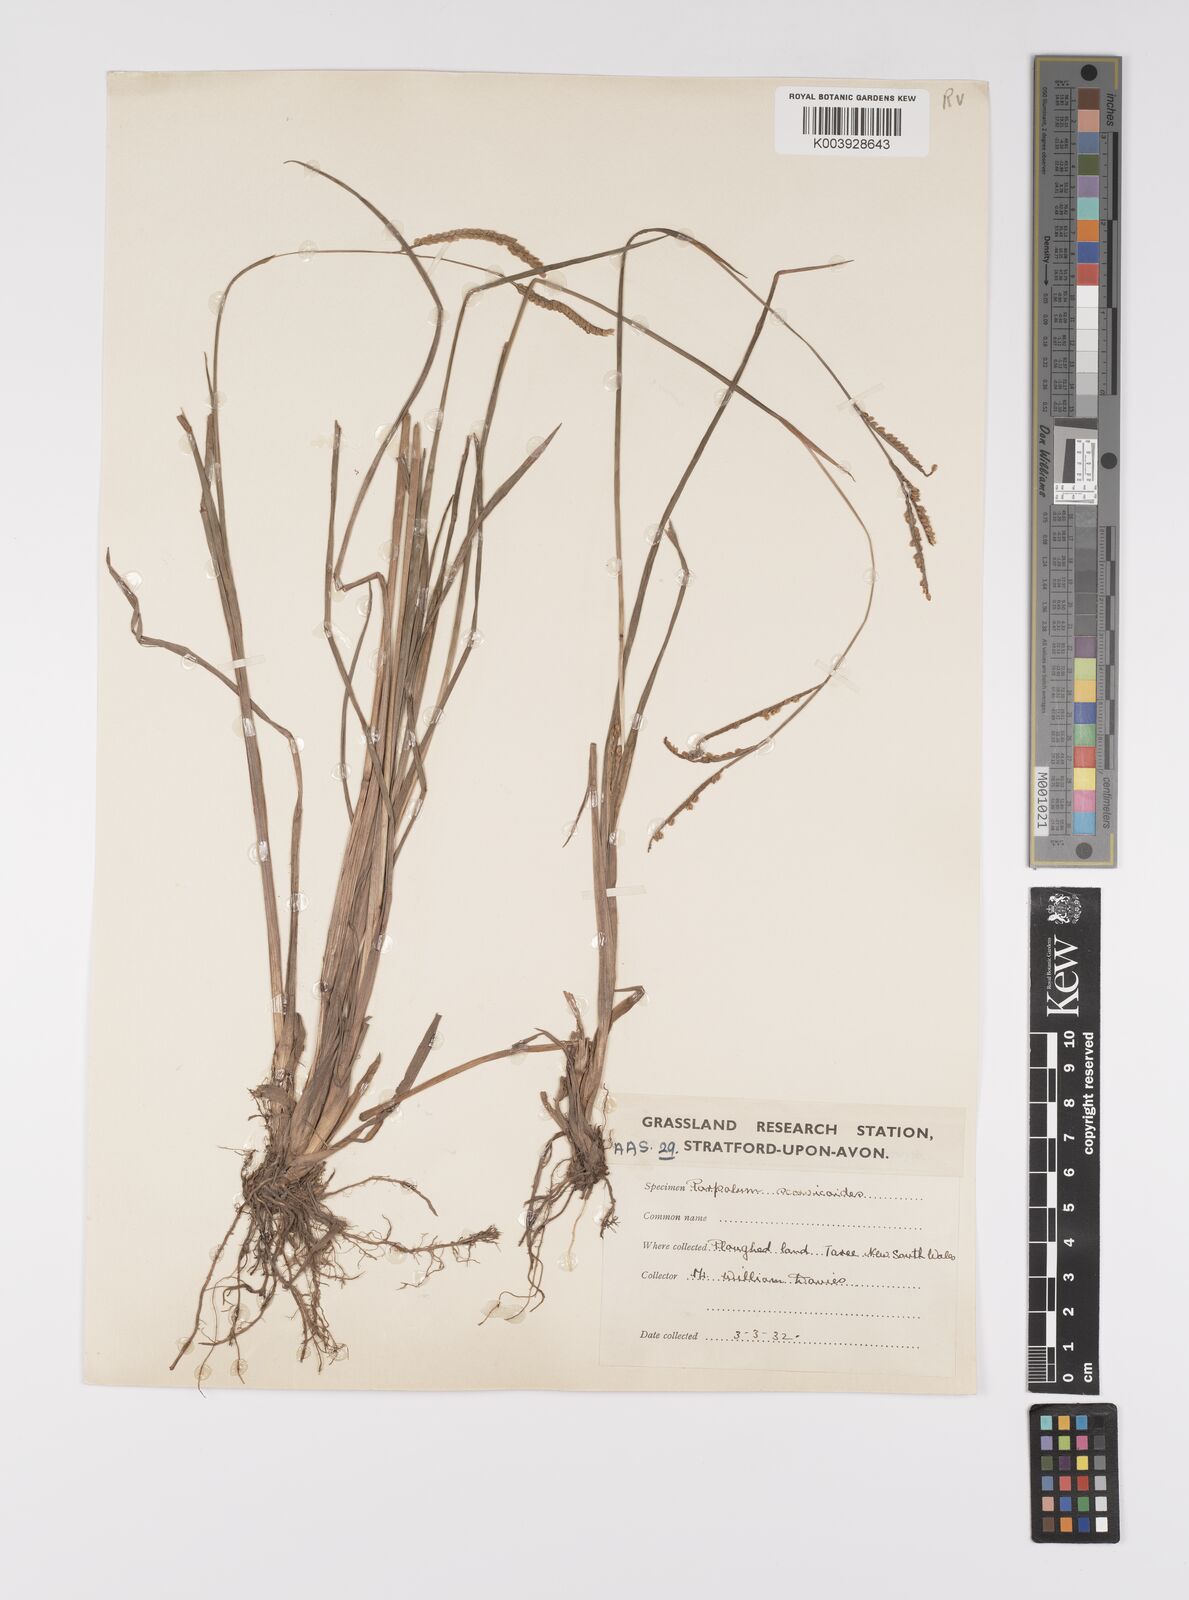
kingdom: Plantae
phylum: Tracheophyta
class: Liliopsida
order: Poales
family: Poaceae
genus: Paspalum
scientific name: Paspalum scrobiculatum
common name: Kodo millet
